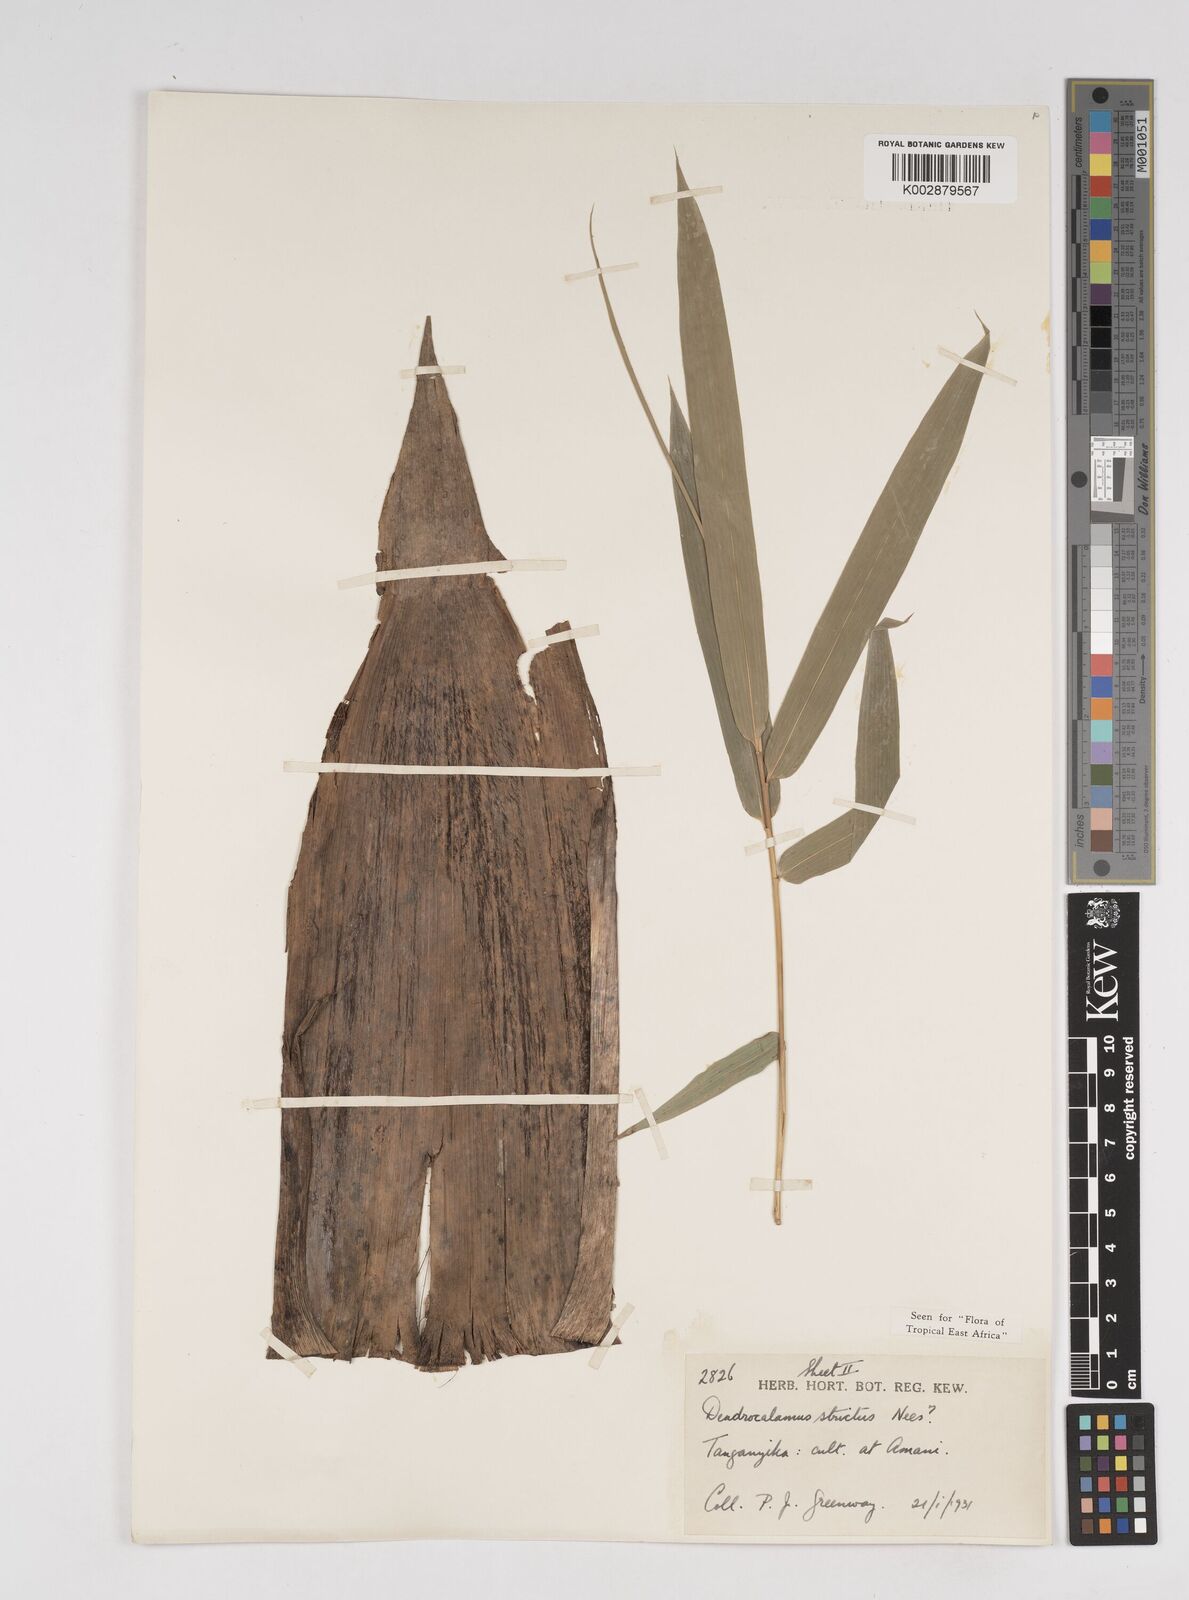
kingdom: Plantae
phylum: Tracheophyta
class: Liliopsida
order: Poales
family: Poaceae
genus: Dendrocalamus
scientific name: Dendrocalamus strictus
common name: Male bamboo
